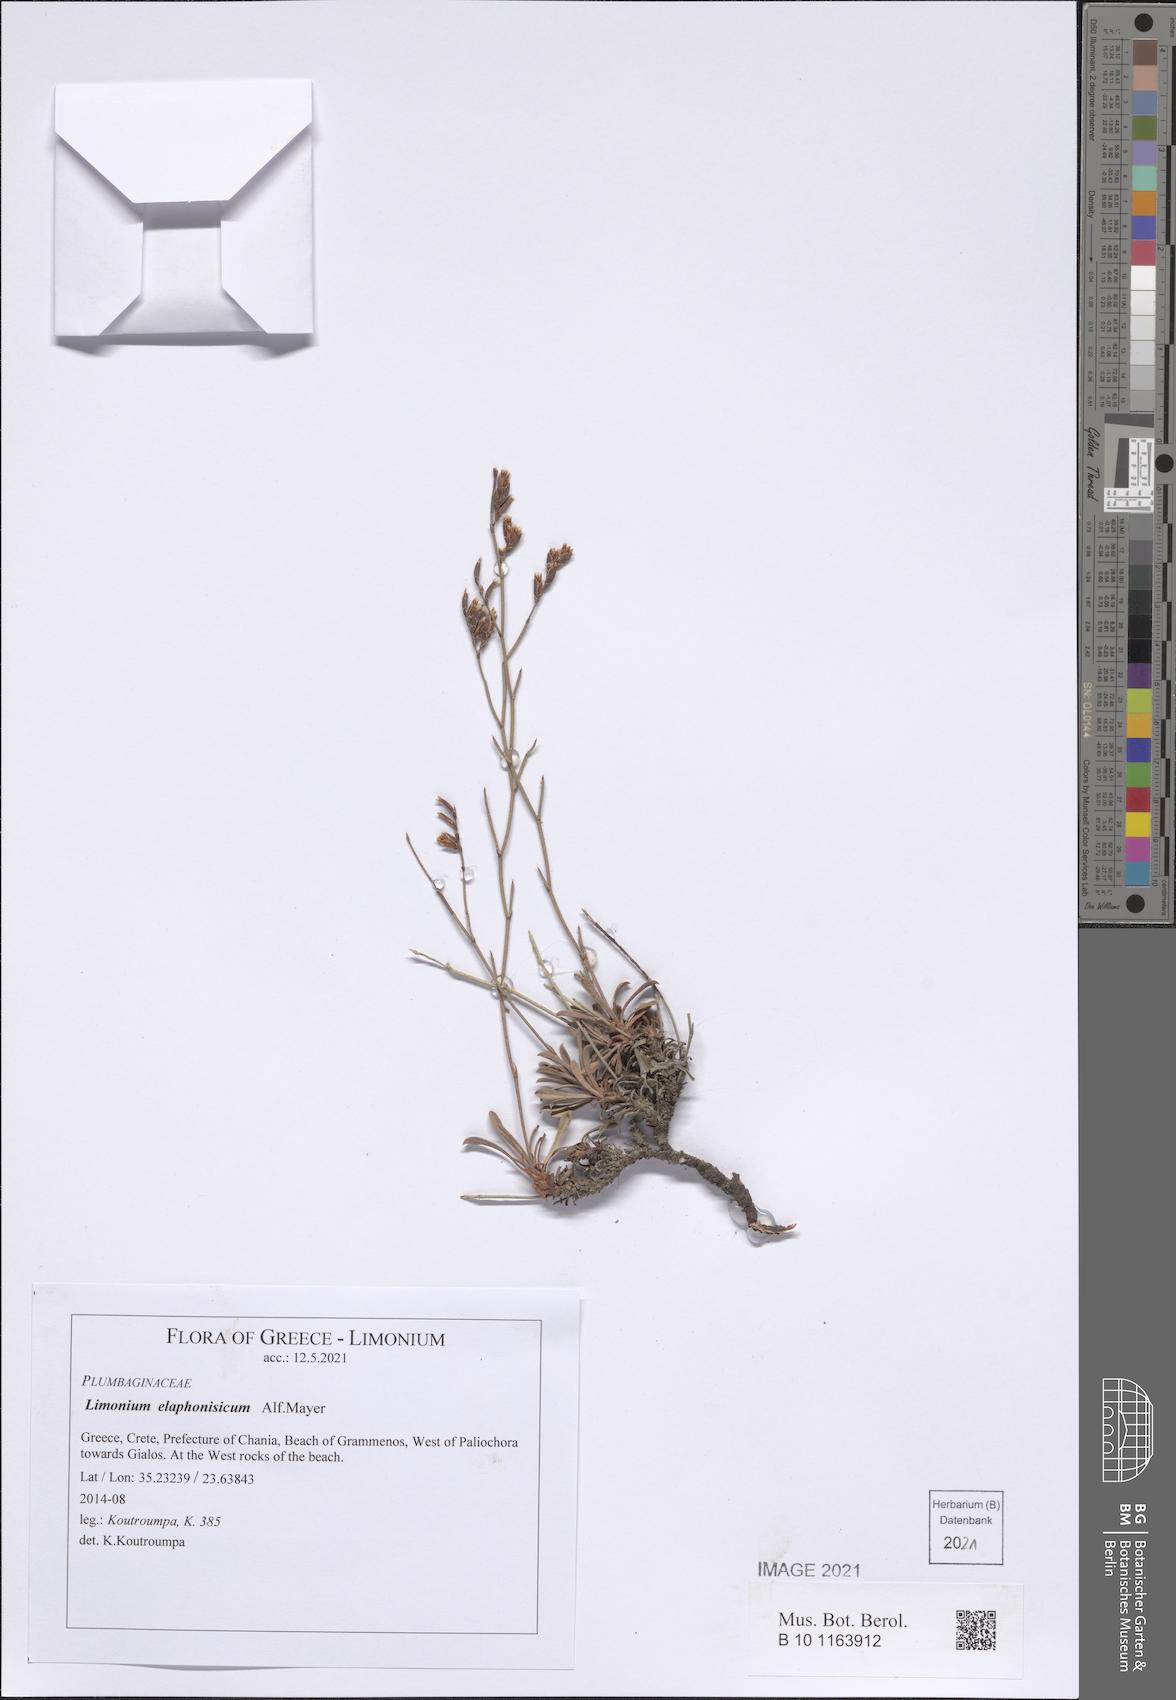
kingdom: Plantae
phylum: Tracheophyta
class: Magnoliopsida
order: Caryophyllales
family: Plumbaginaceae
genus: Limonium
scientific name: Limonium elaphonisicum
